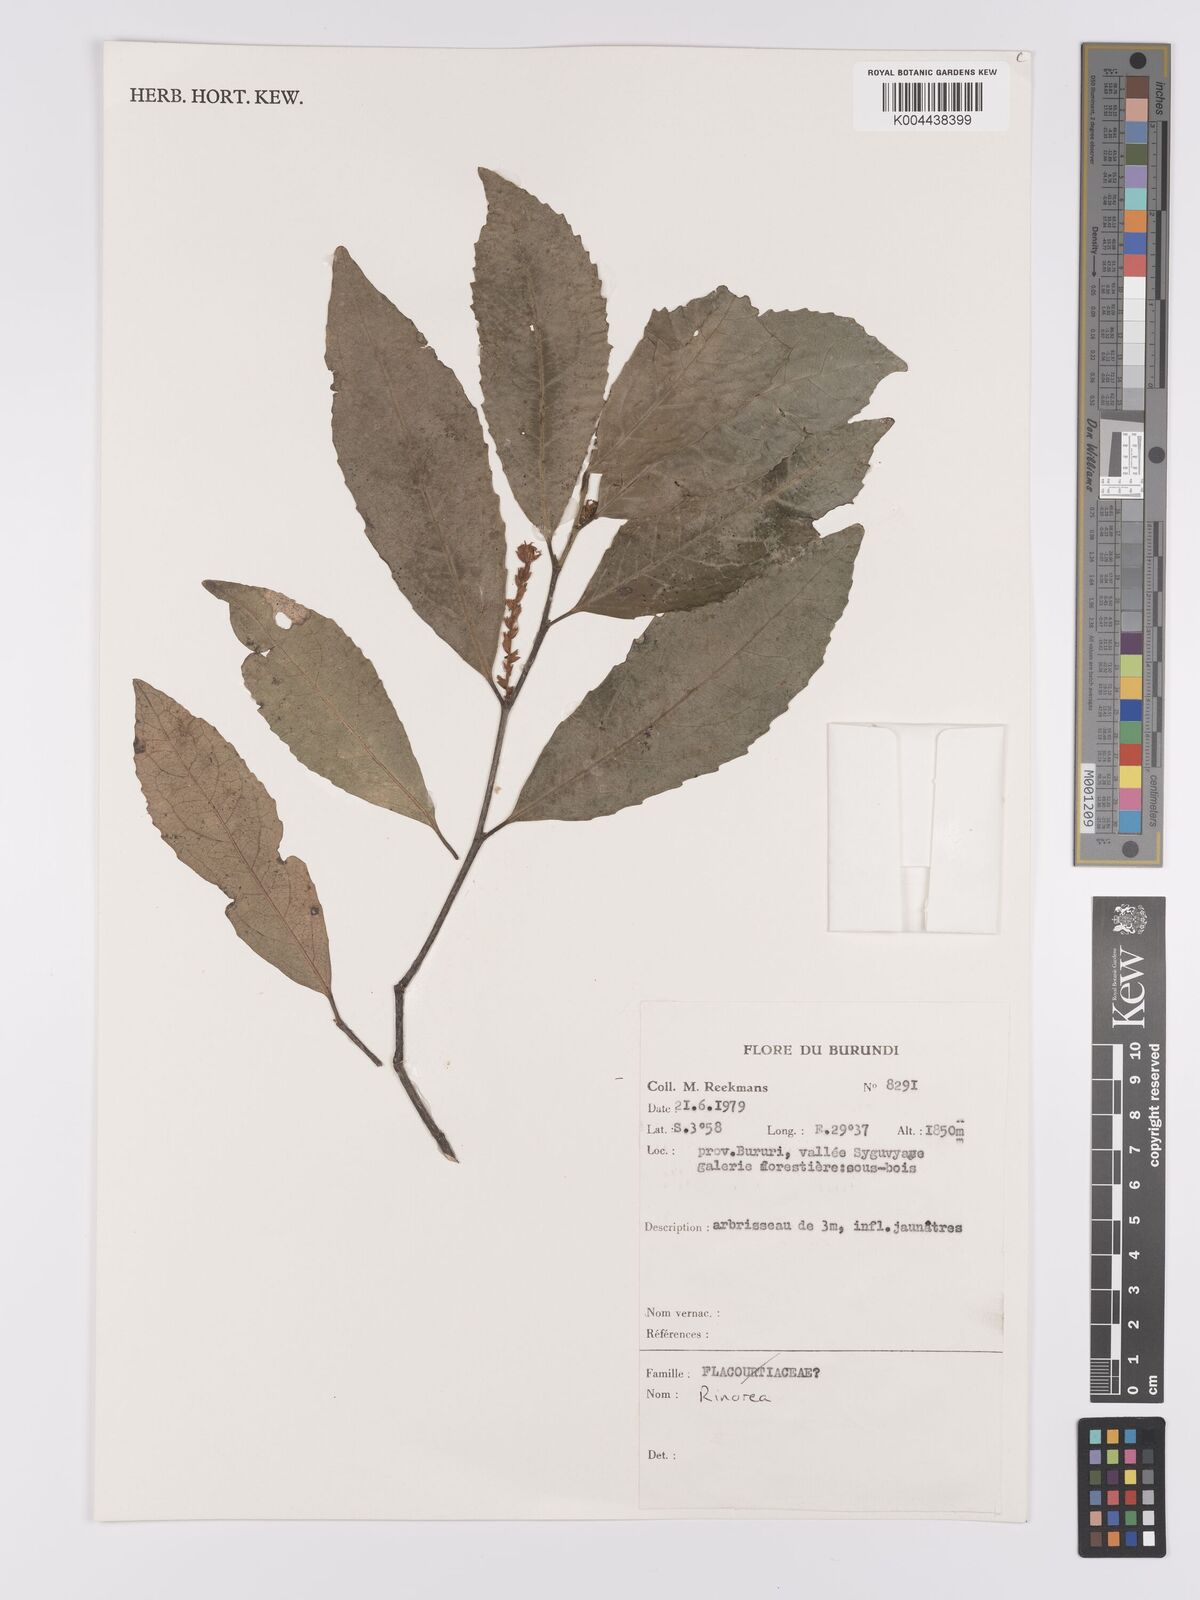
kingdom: Plantae
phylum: Tracheophyta
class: Magnoliopsida
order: Malpighiales
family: Violaceae
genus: Rinorea
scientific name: Rinorea
